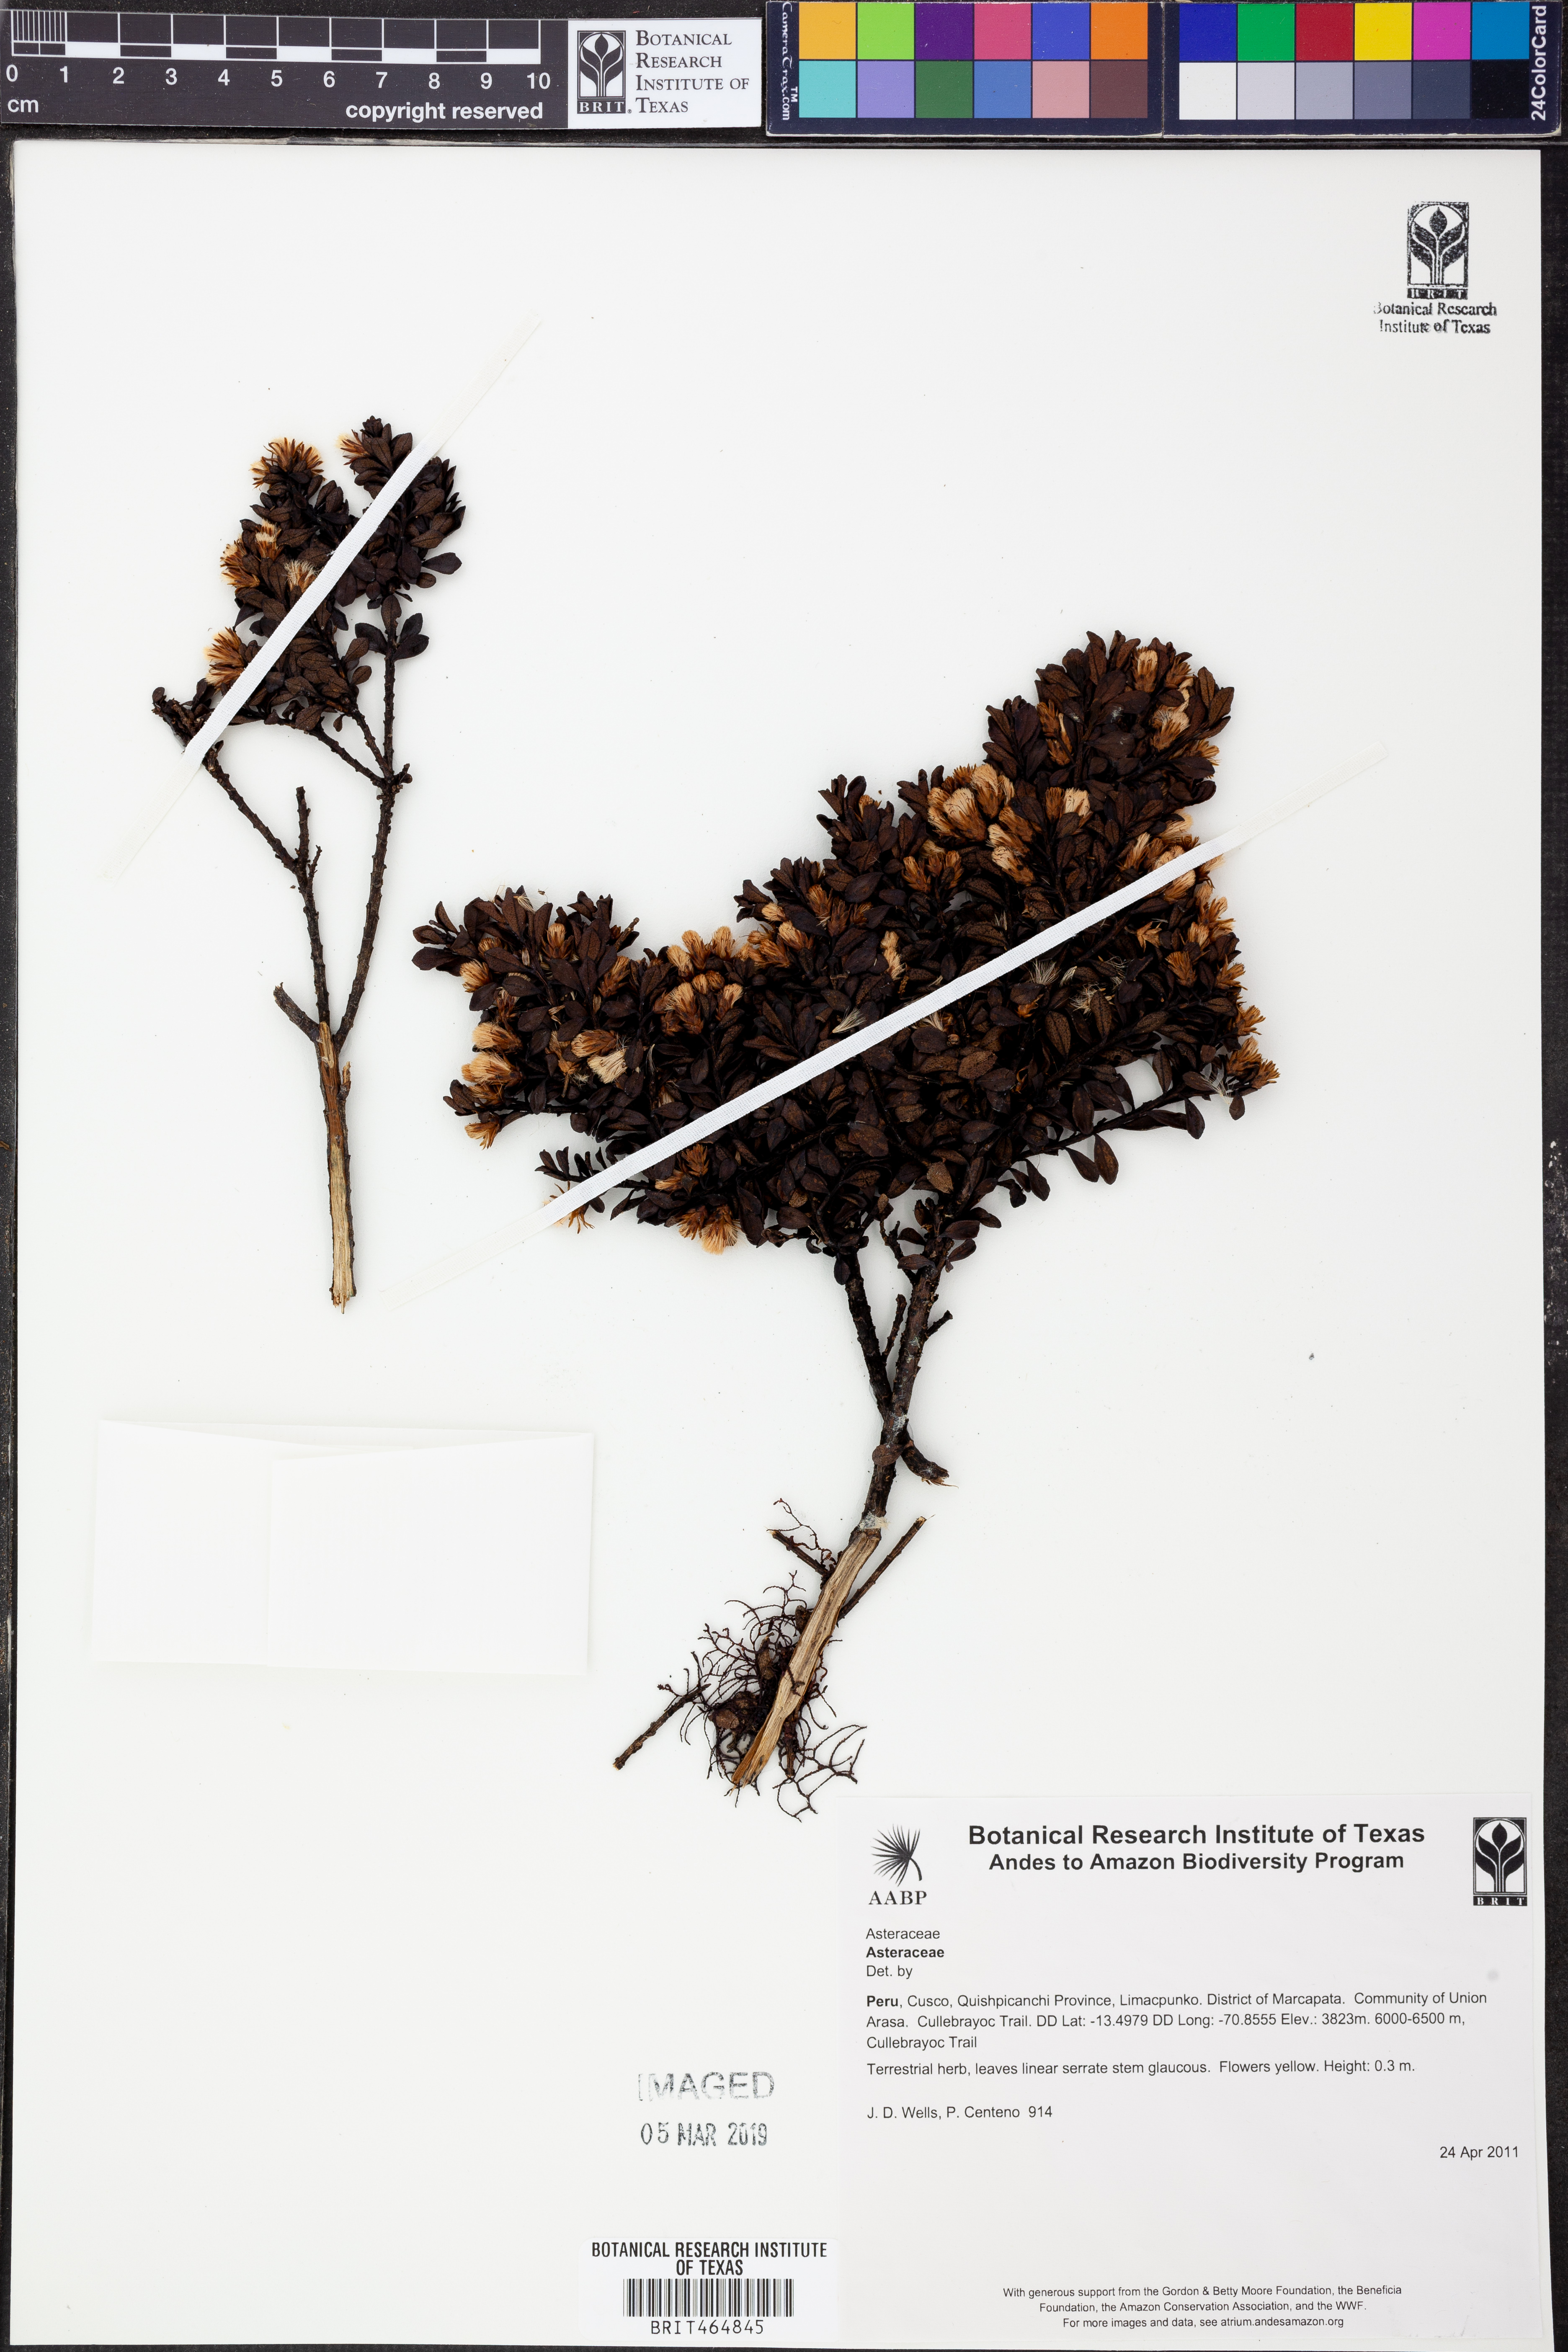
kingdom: Plantae
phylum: Tracheophyta
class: Magnoliopsida
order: Asterales
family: Asteraceae
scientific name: Asteraceae
